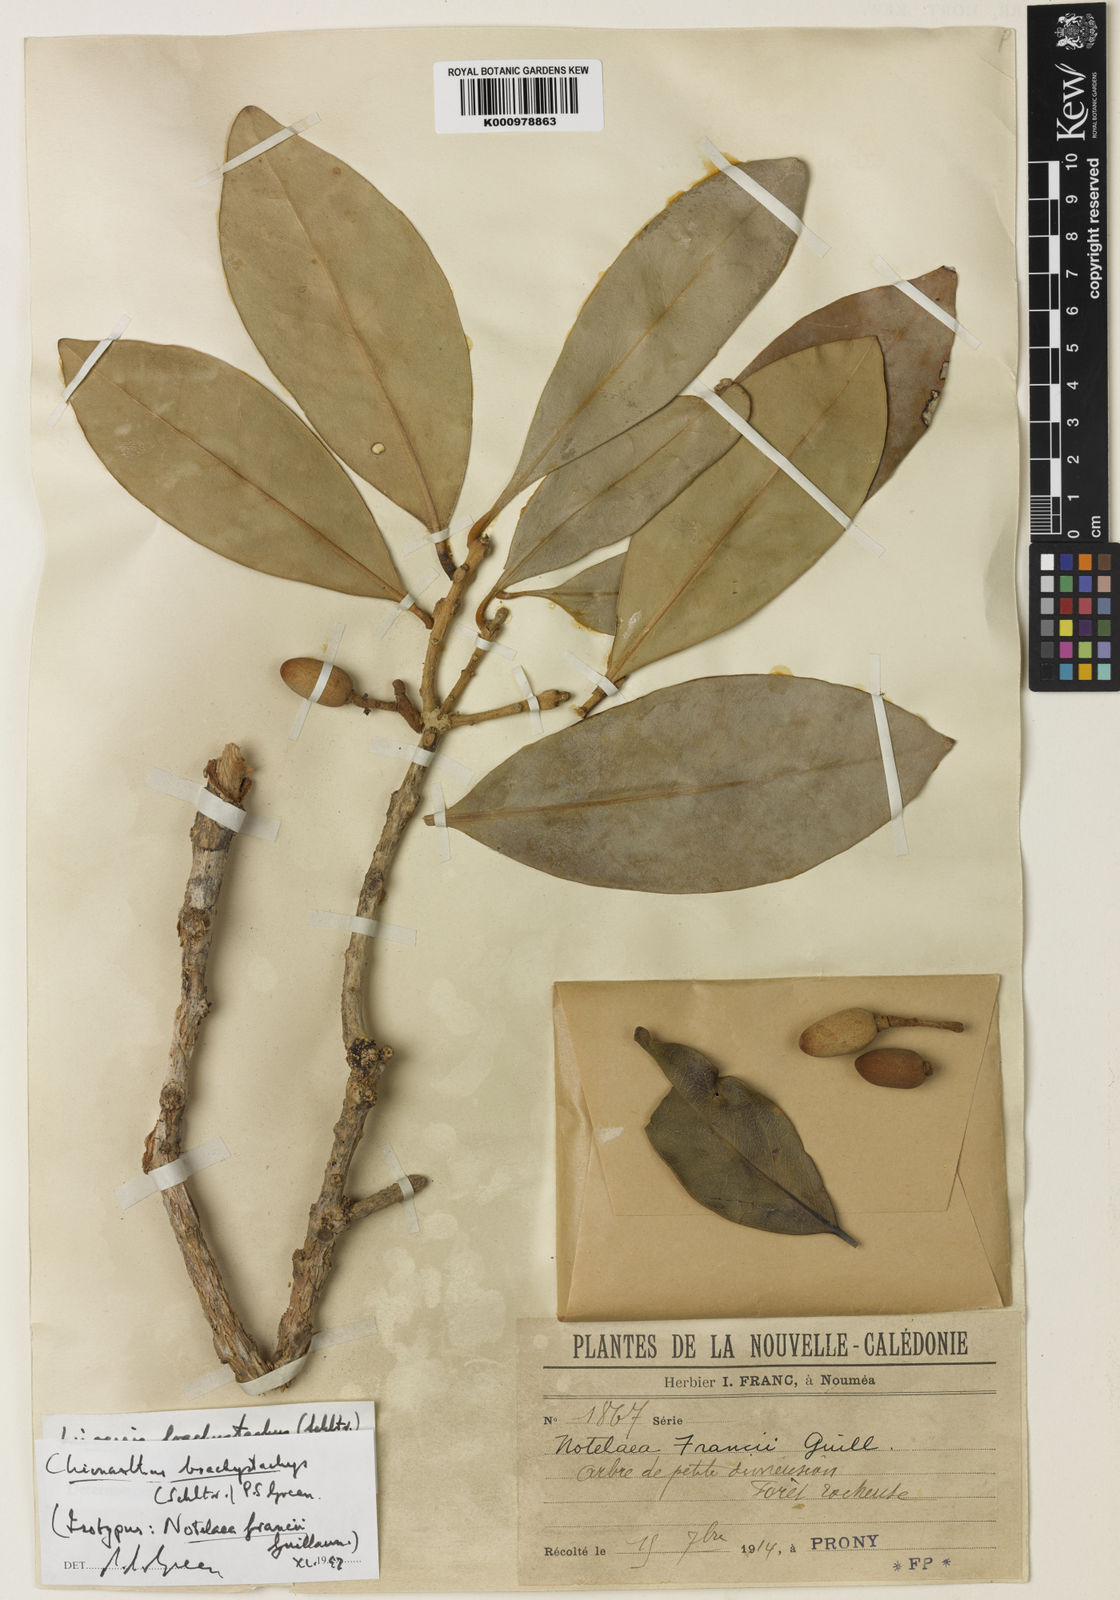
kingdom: Plantae
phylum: Tracheophyta
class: Magnoliopsida
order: Lamiales
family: Oleaceae
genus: Chionanthus
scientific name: Chionanthus brachystachys
